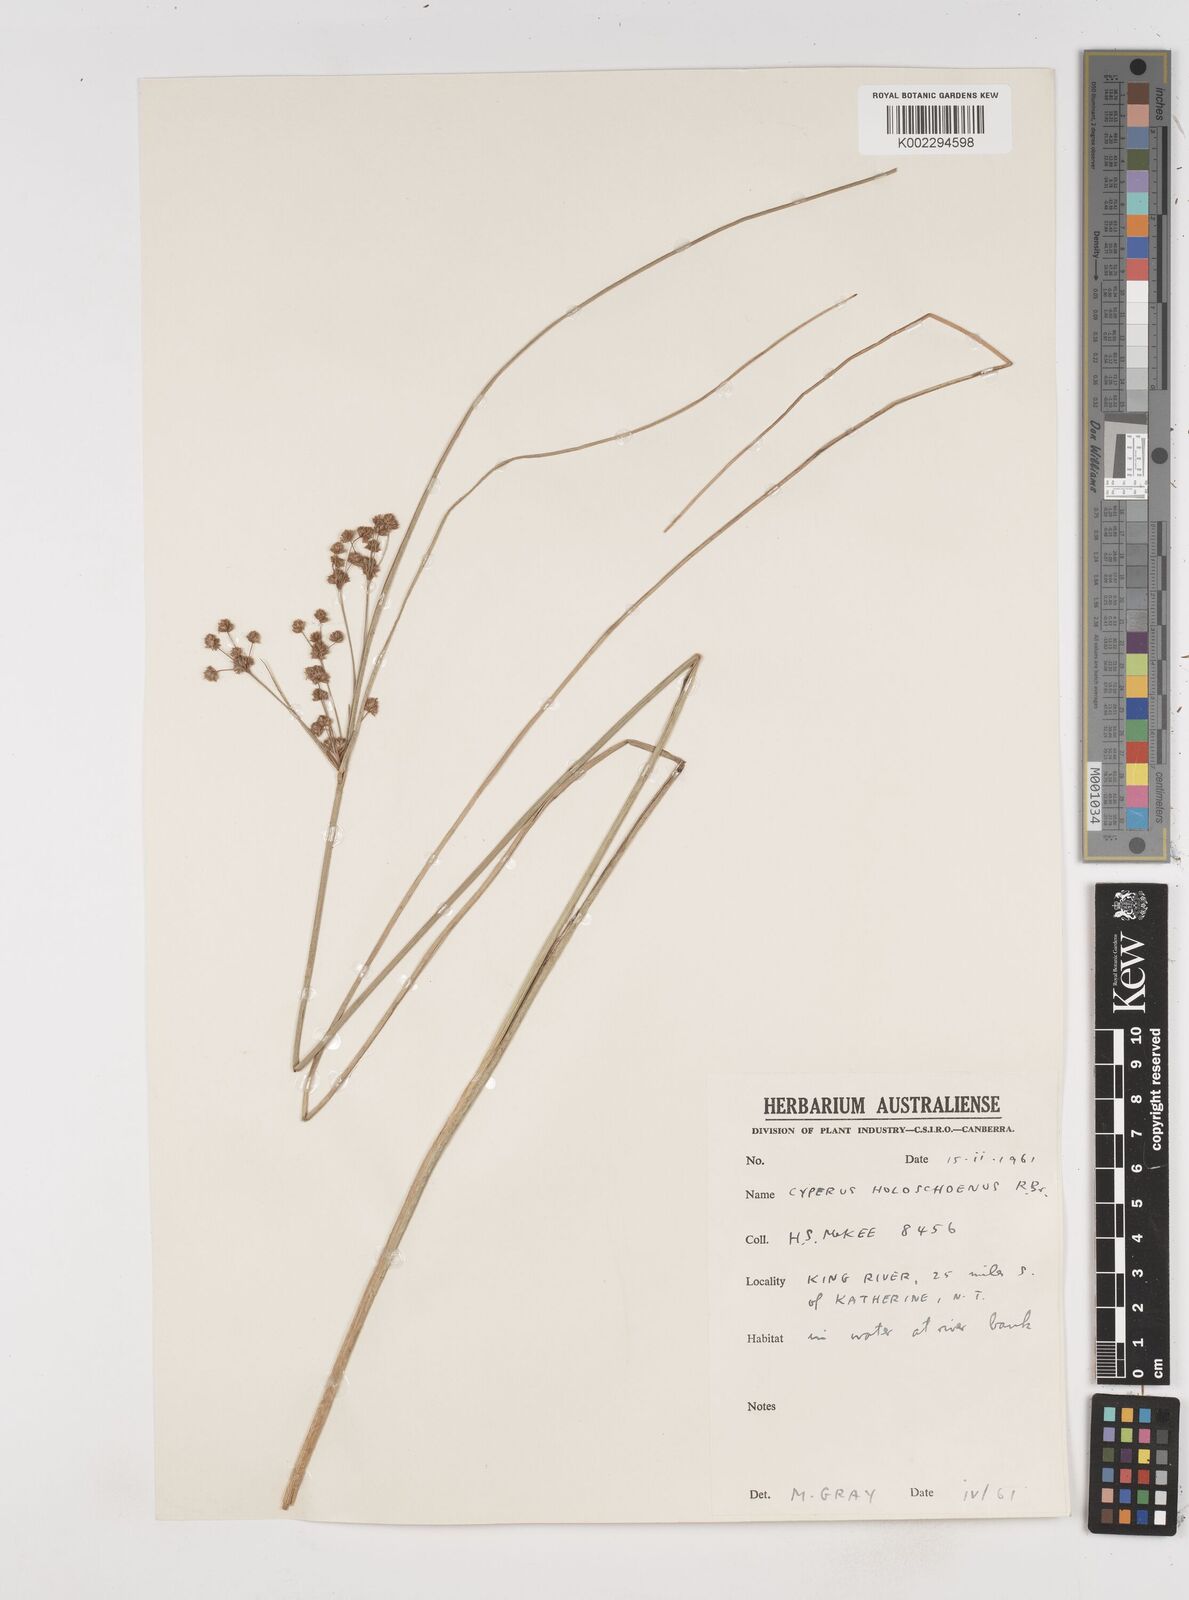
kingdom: Plantae
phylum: Tracheophyta
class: Liliopsida
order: Poales
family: Cyperaceae
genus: Cyperus
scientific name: Cyperus holoschoenus
